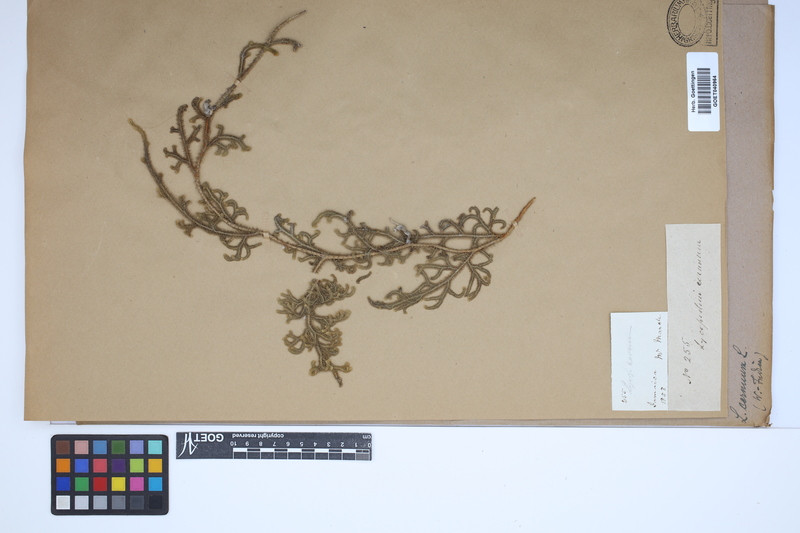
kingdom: Plantae
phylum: Tracheophyta
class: Lycopodiopsida
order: Lycopodiales
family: Lycopodiaceae
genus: Palhinhaea
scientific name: Palhinhaea cernua
